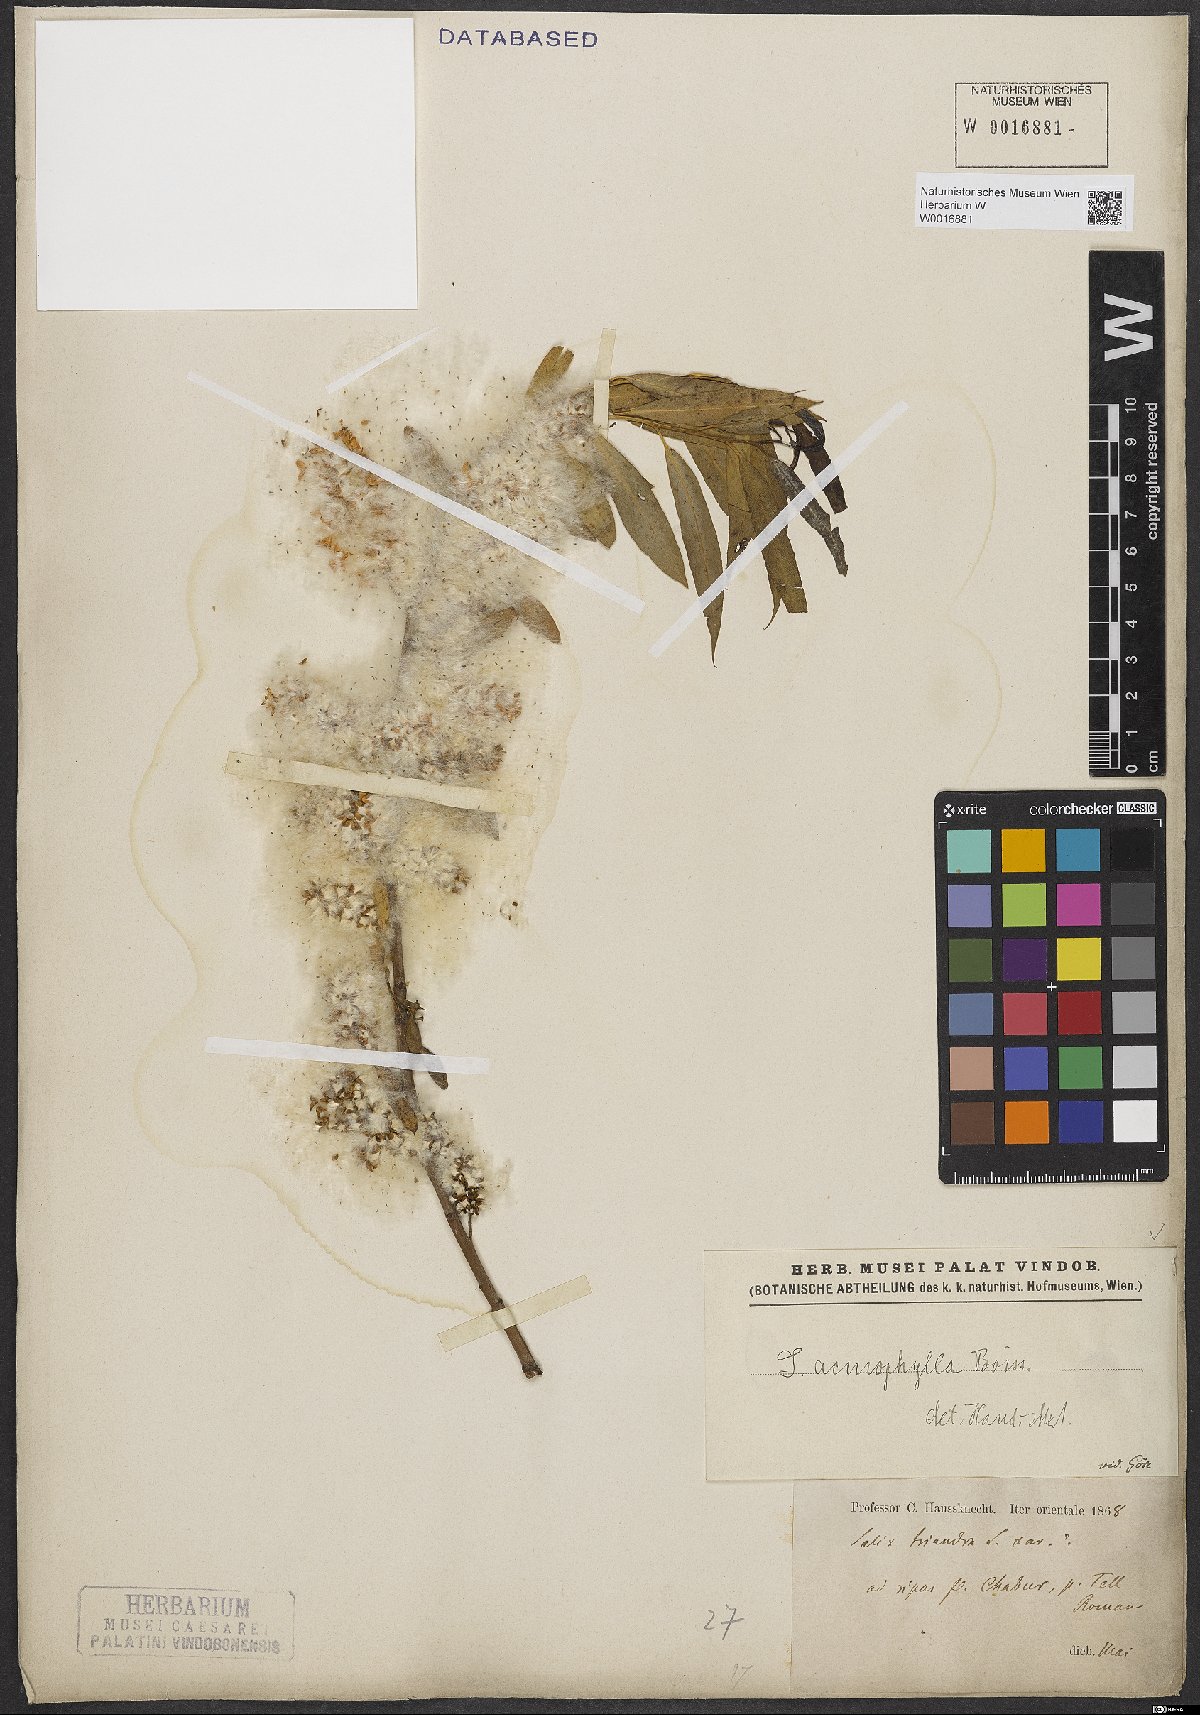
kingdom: Plantae
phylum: Tracheophyta
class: Magnoliopsida
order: Malpighiales
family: Salicaceae
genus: Salix
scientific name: Salix acmophylla
